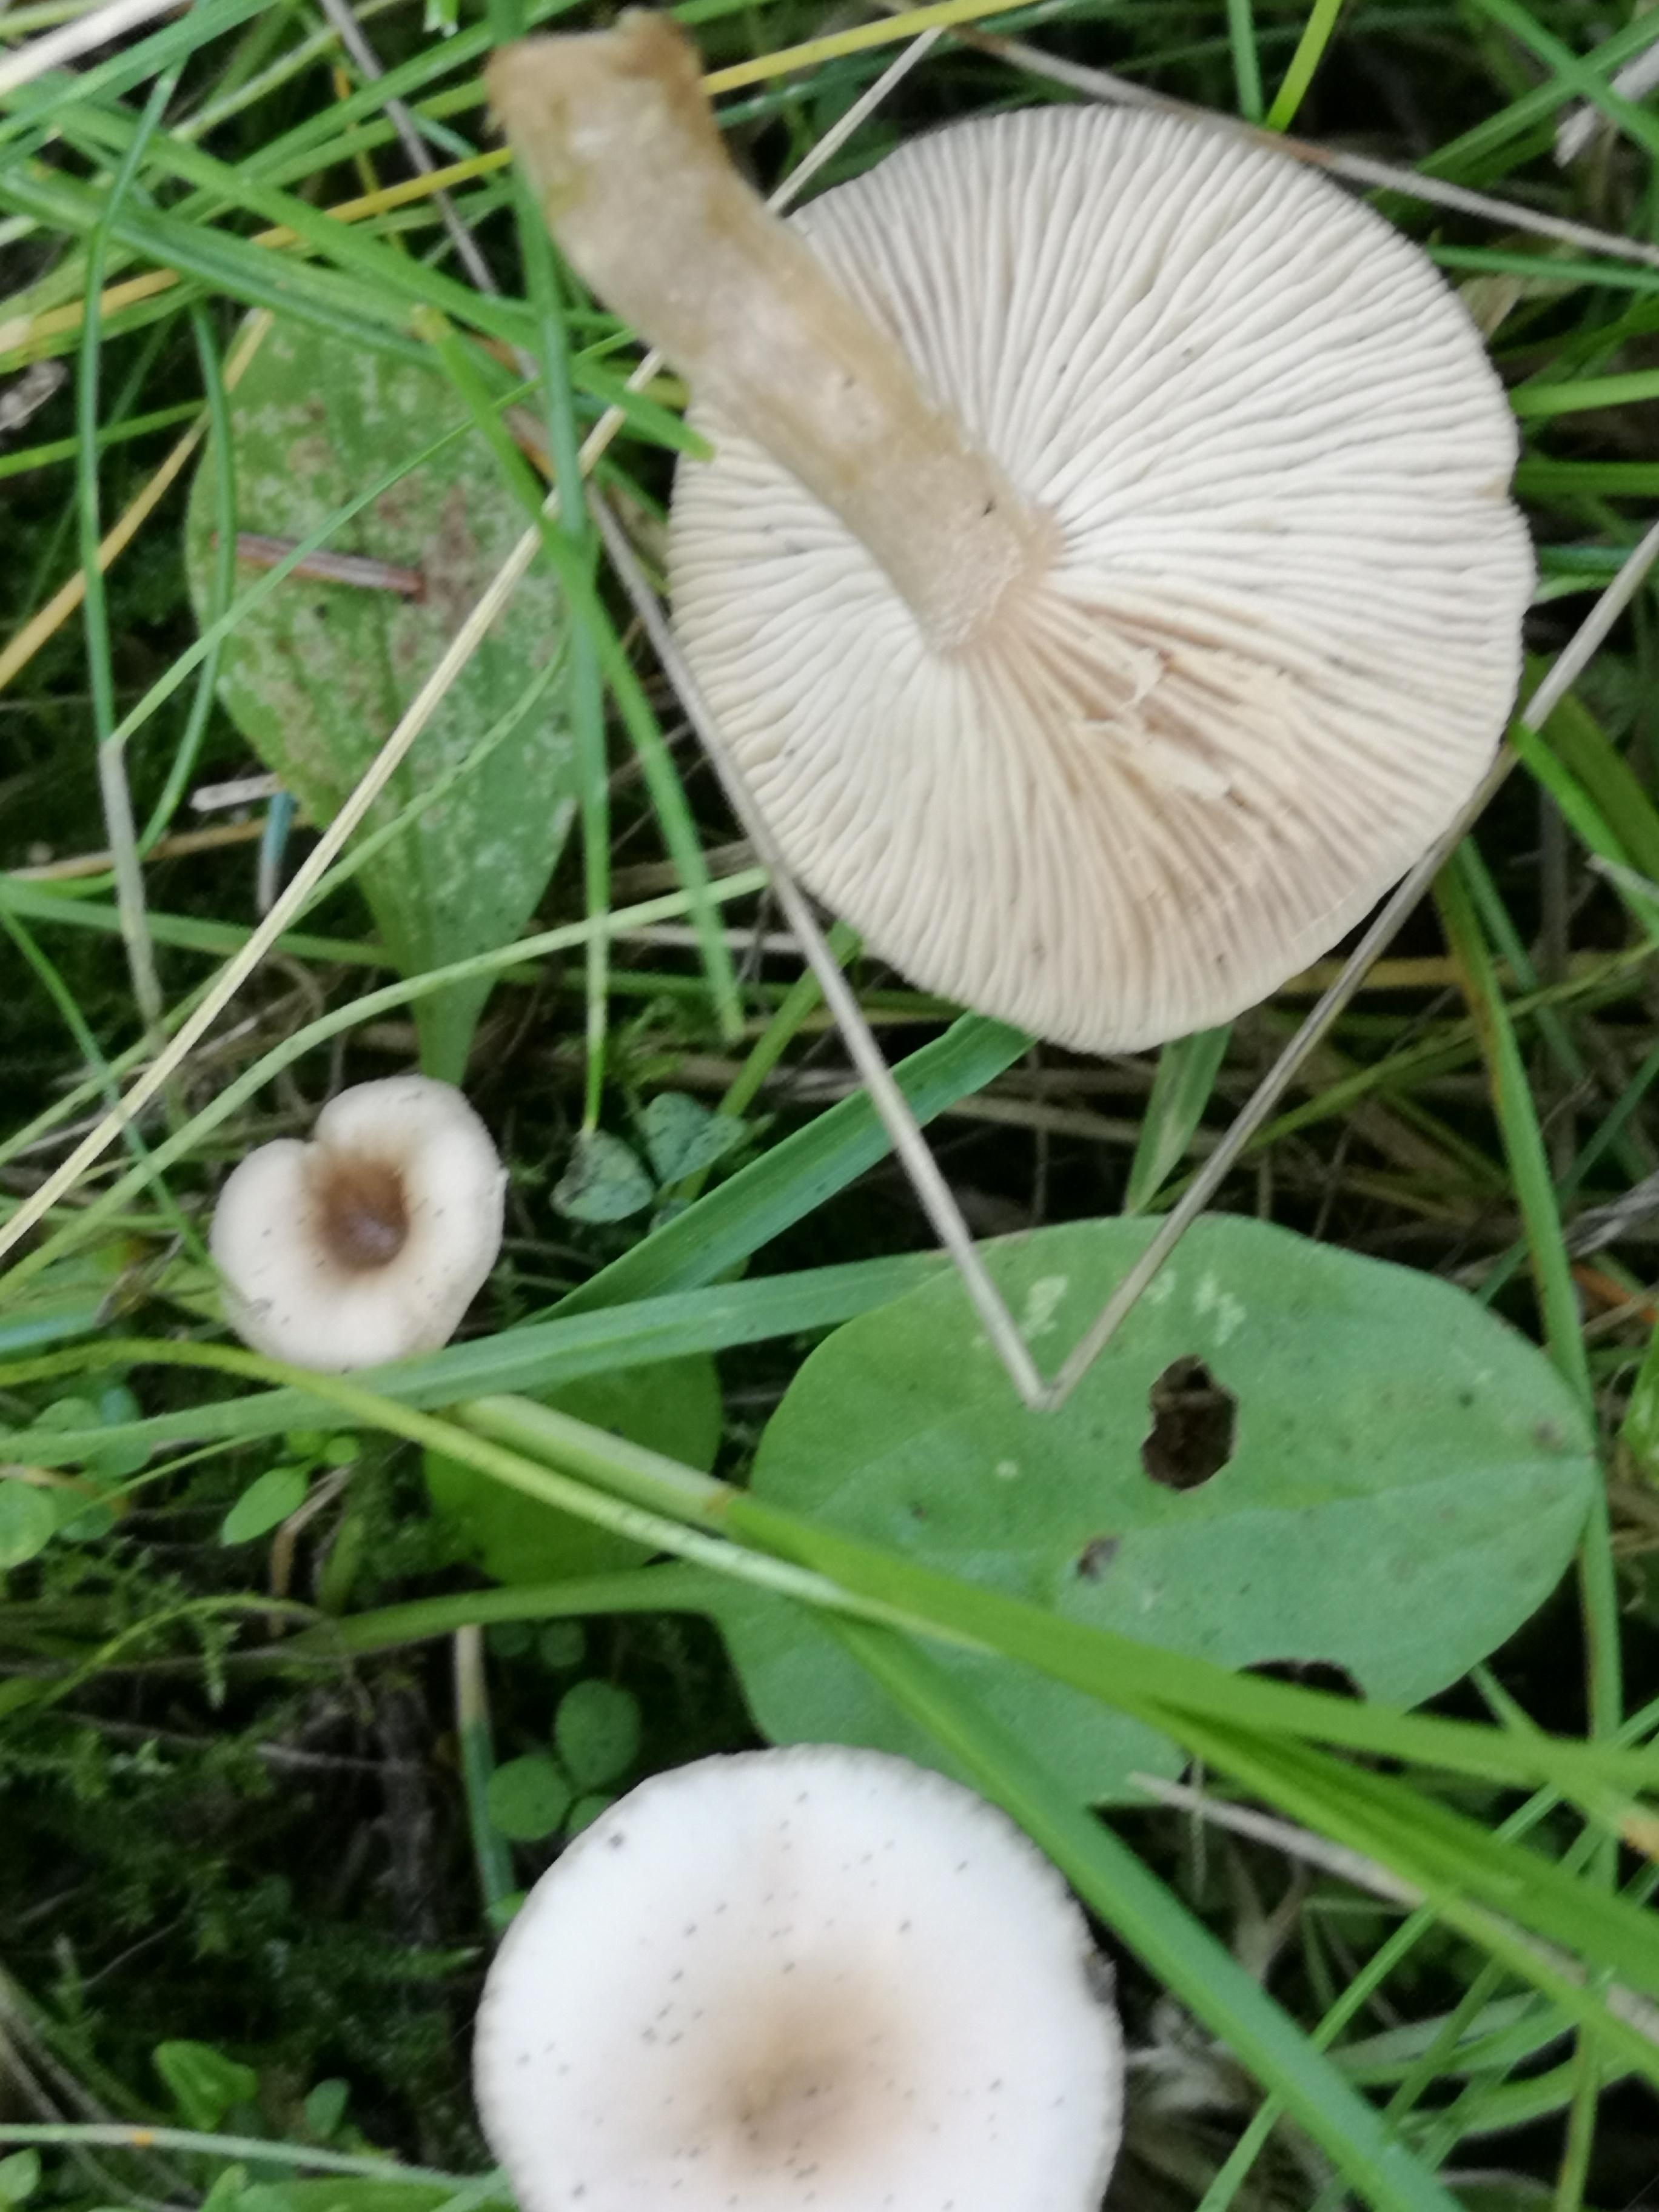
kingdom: Fungi
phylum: Basidiomycota
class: Agaricomycetes
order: Agaricales
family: Tricholomataceae
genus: Clitocybe
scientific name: Clitocybe fragrans
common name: vellugtende tragthat
